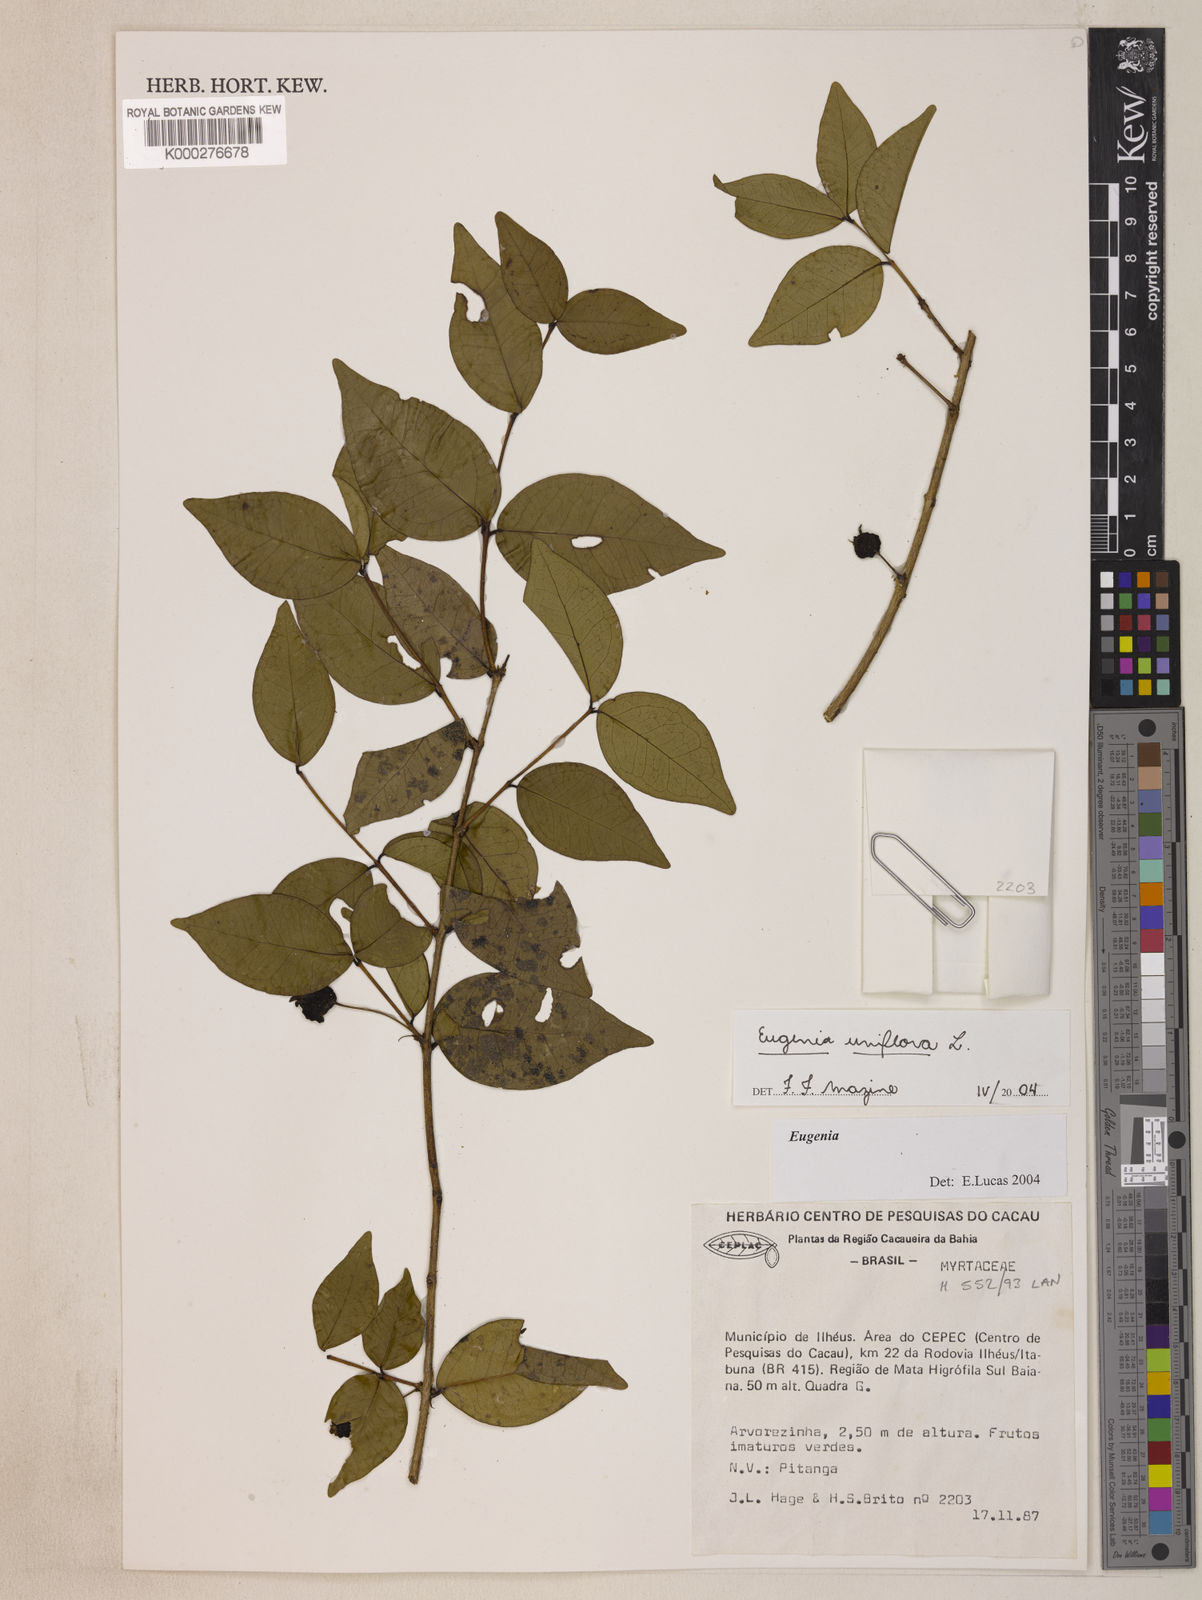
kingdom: Plantae
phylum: Tracheophyta
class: Magnoliopsida
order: Myrtales
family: Myrtaceae
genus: Eugenia
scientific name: Eugenia uniflora
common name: Surinam cherry
